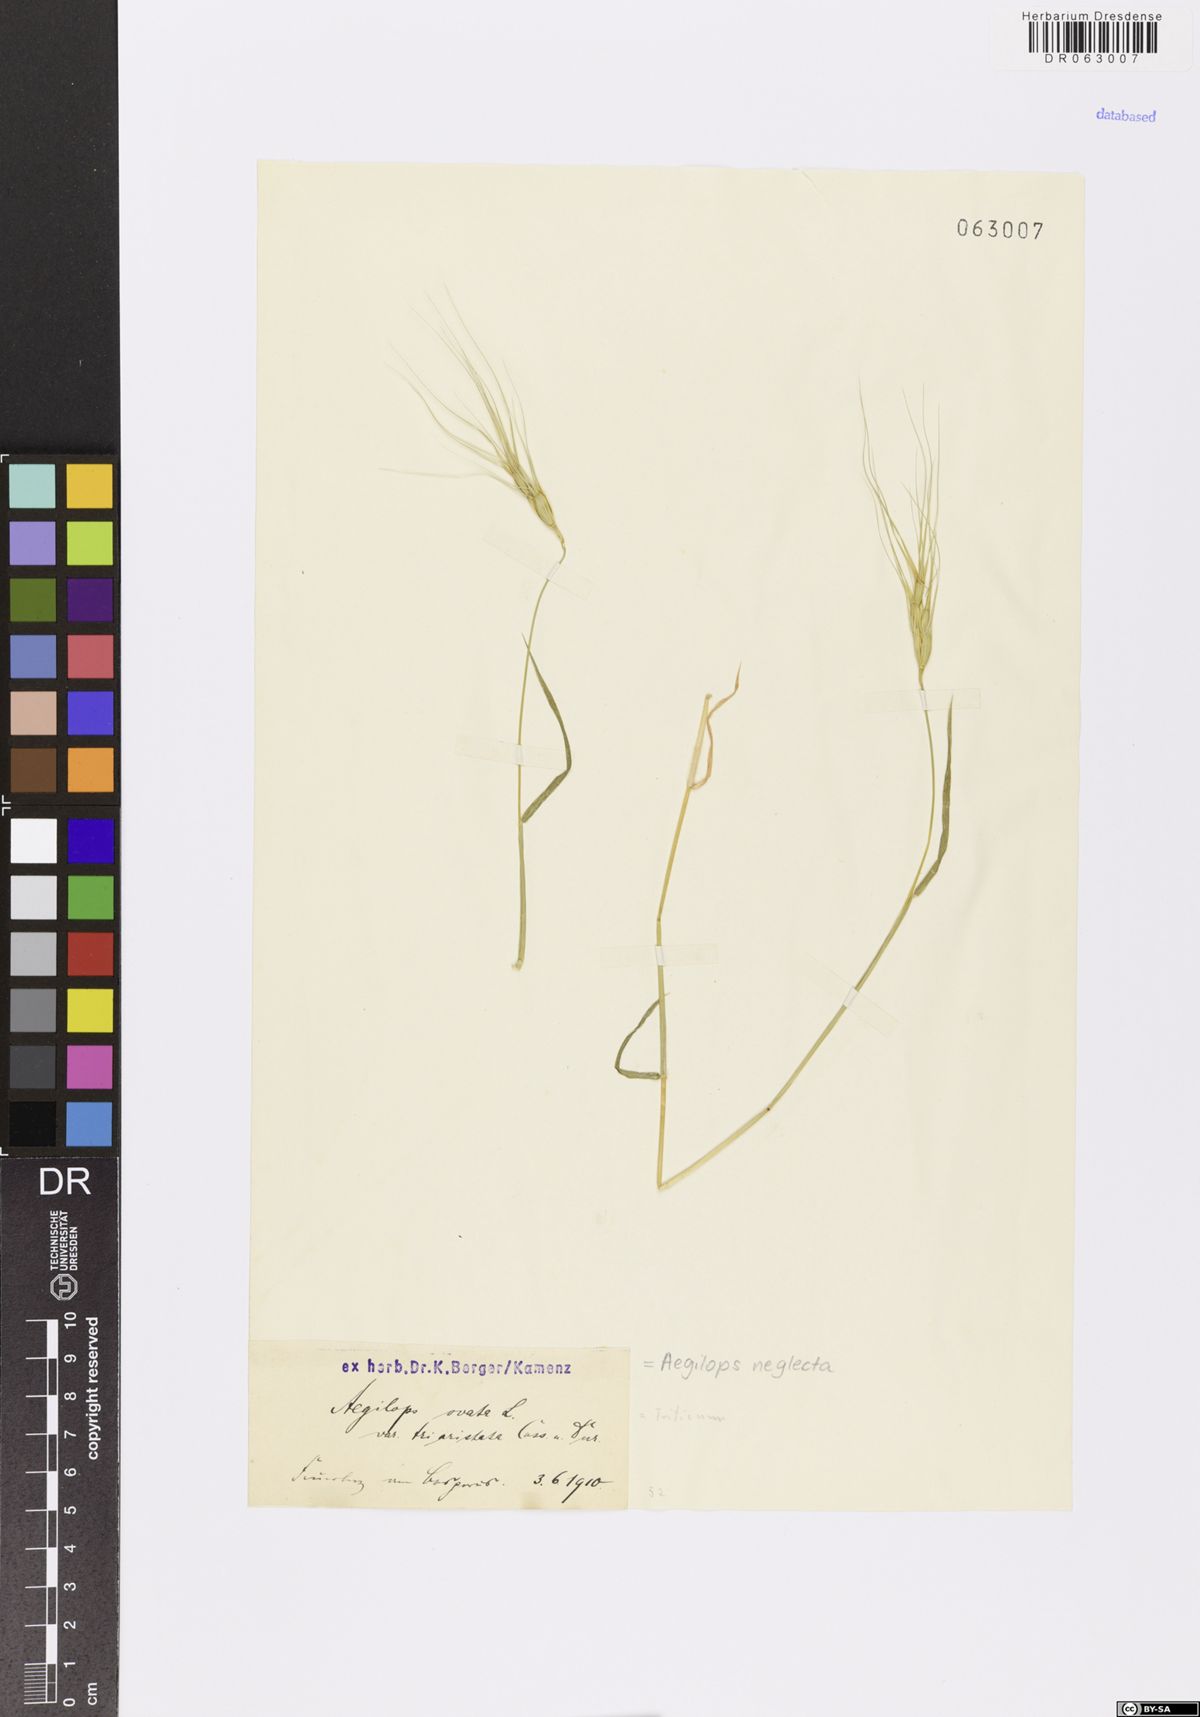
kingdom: Plantae
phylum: Tracheophyta
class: Liliopsida
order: Poales
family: Poaceae
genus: Aegilops
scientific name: Aegilops neglecta
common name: Three-awn goat grass
